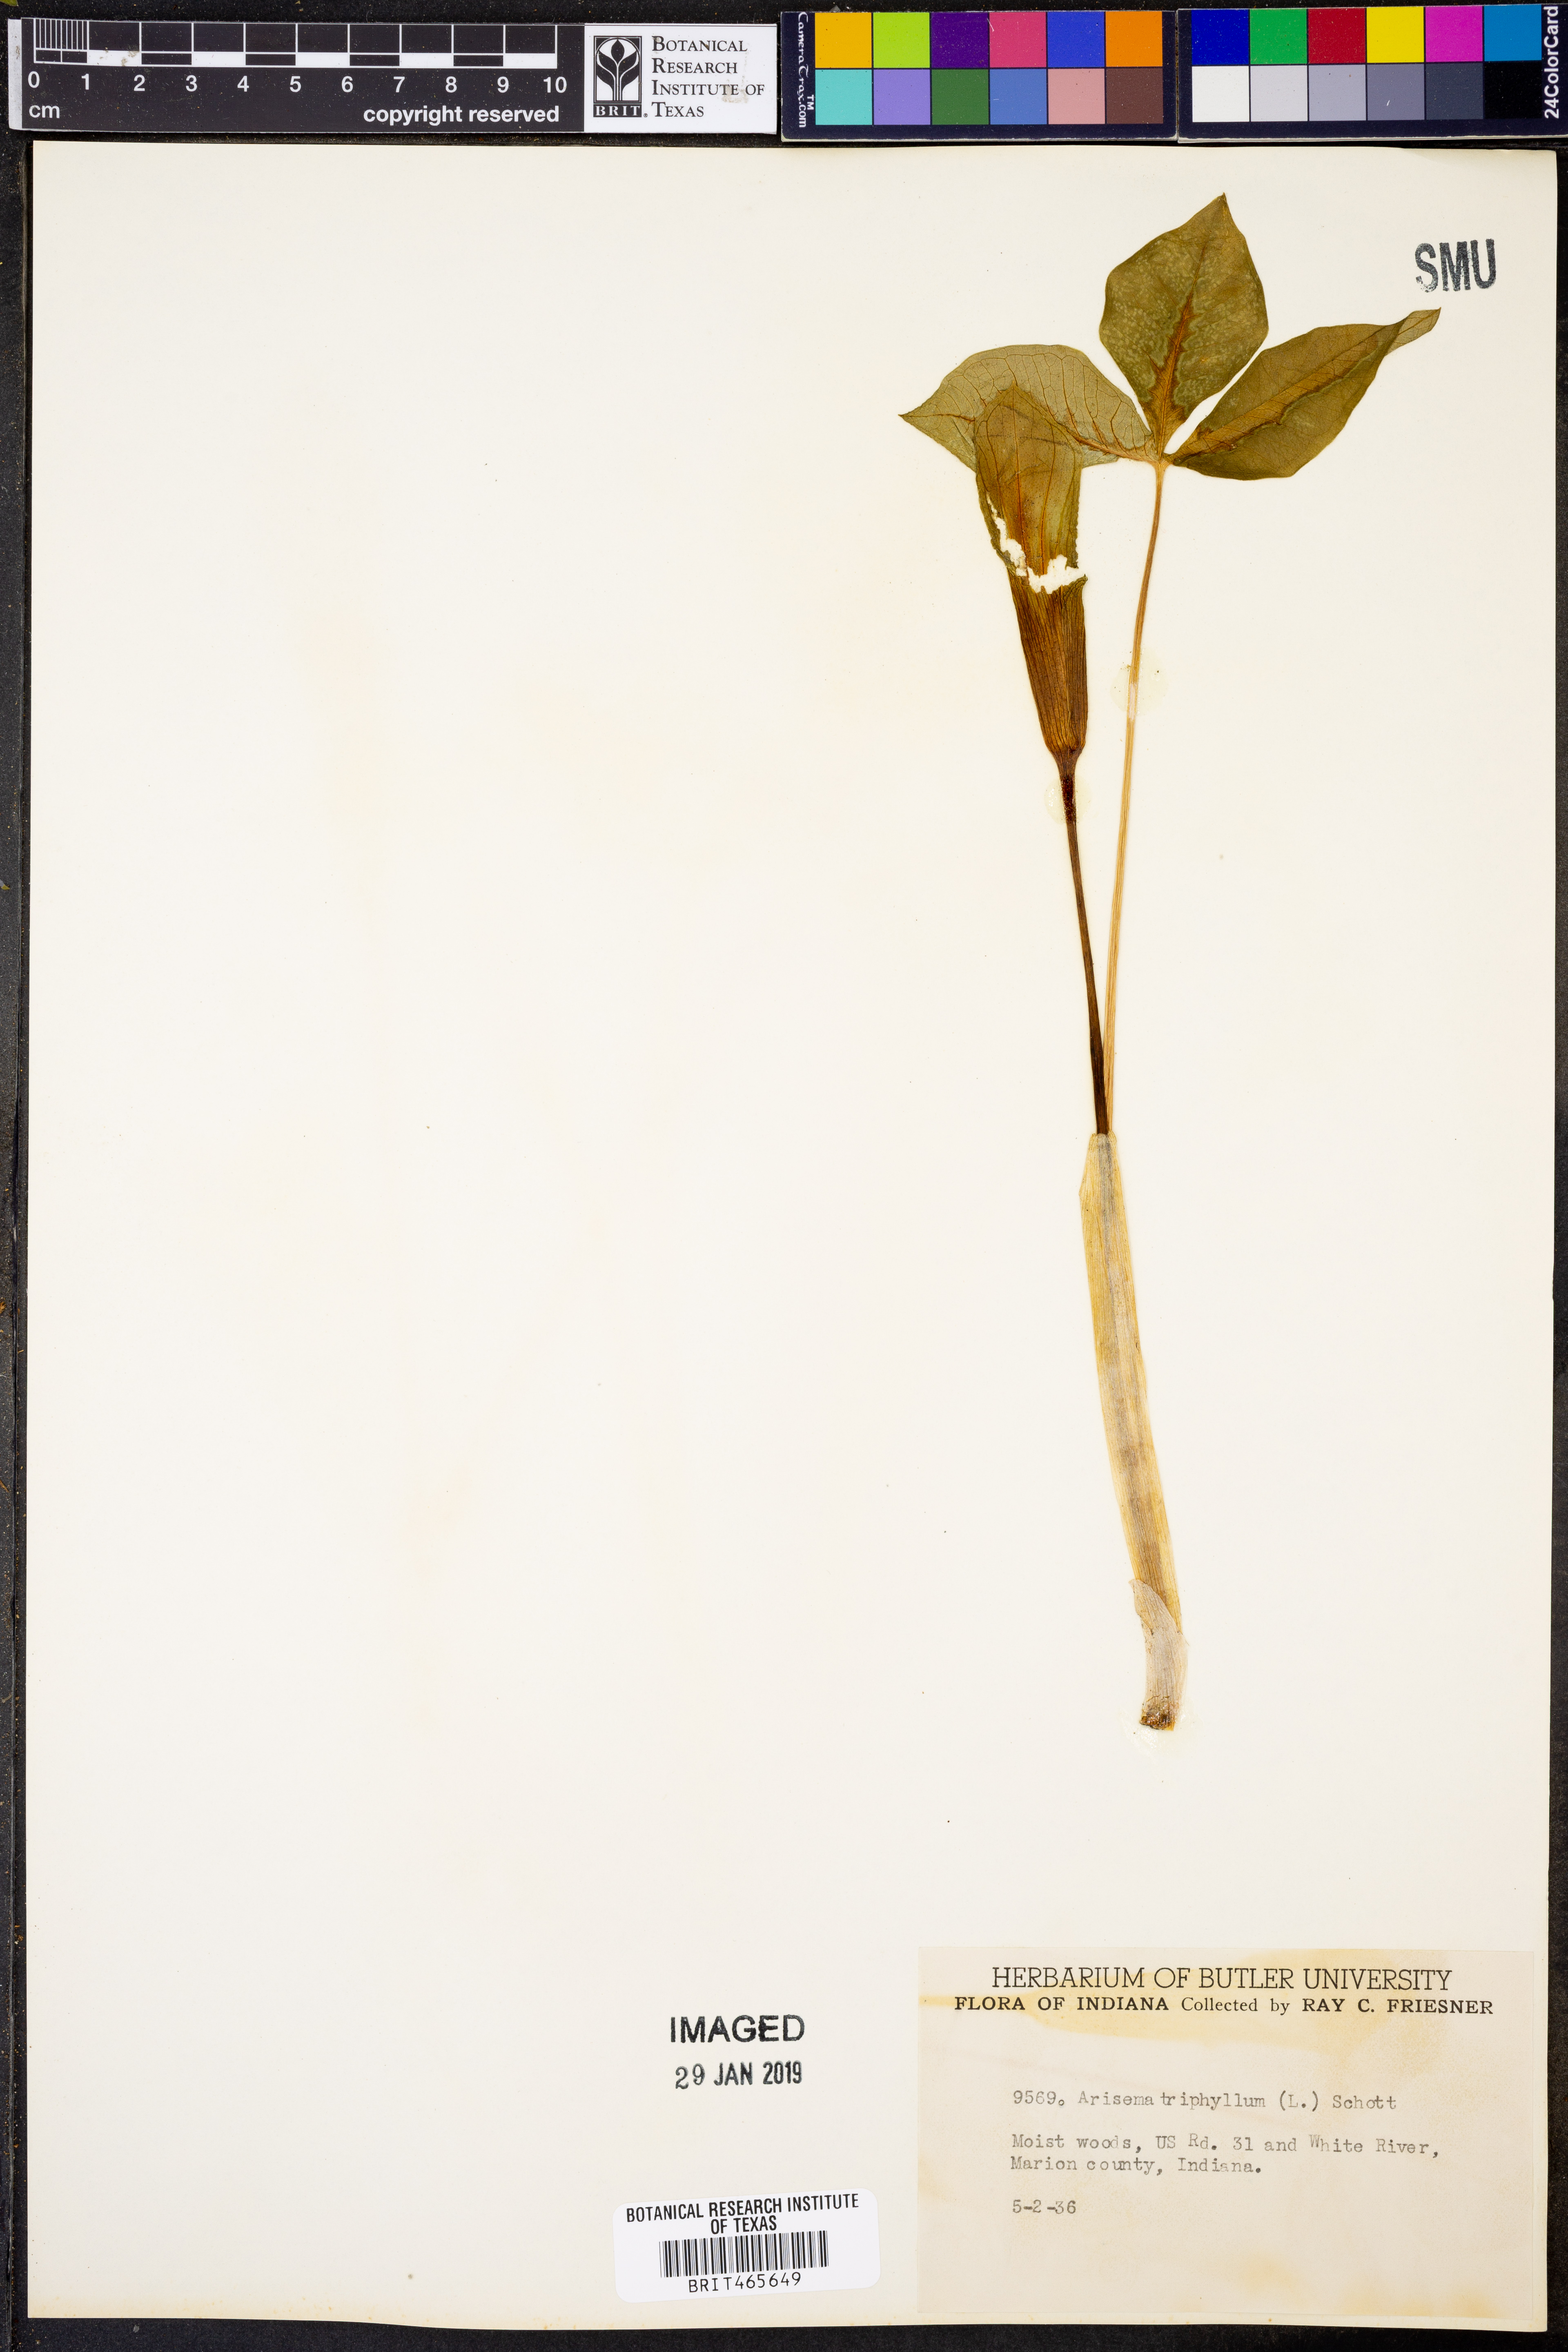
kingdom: Plantae
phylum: Tracheophyta
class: Liliopsida
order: Alismatales
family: Araceae
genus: Arisaema
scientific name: Arisaema triphyllum
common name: Jack-in-the-pulpit
